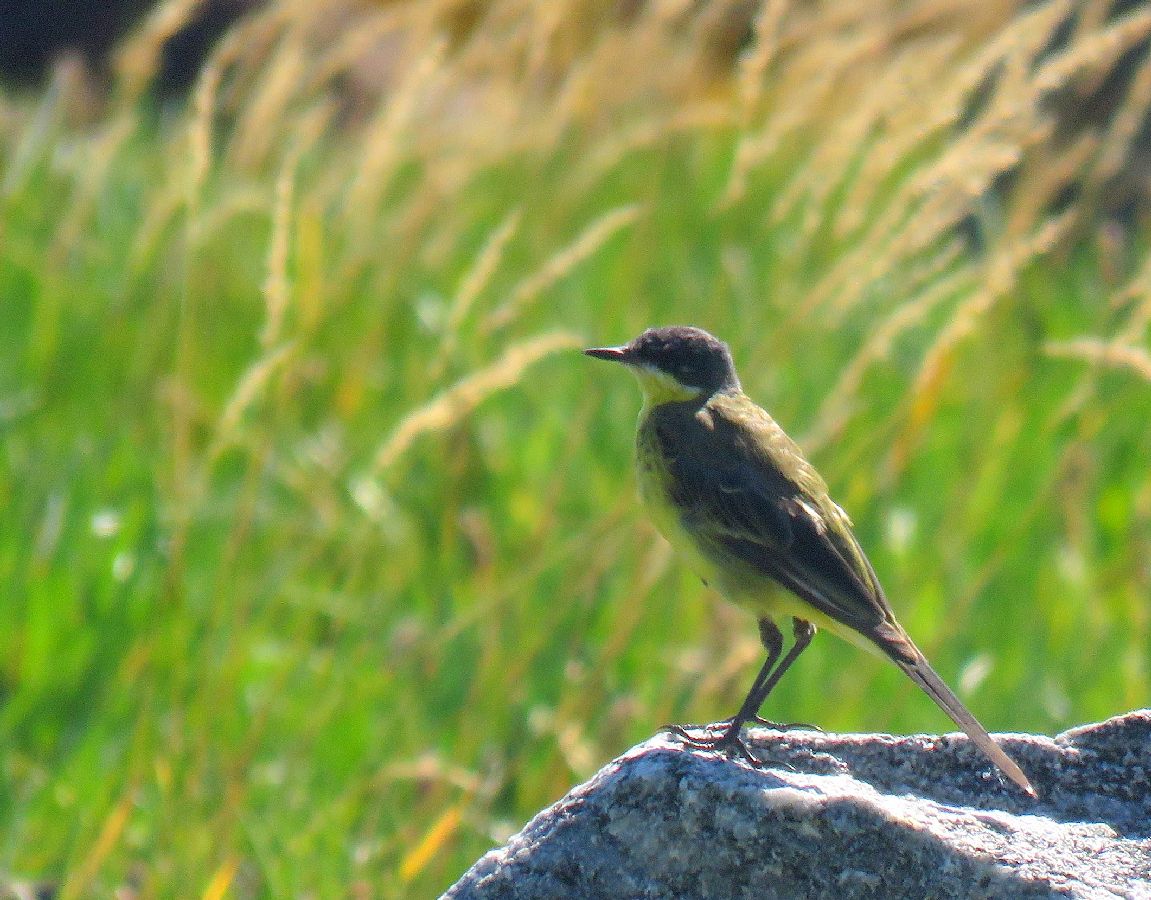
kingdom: Animalia
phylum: Chordata
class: Aves
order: Passeriformes
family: Motacillidae
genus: Motacilla
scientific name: Motacilla flava
